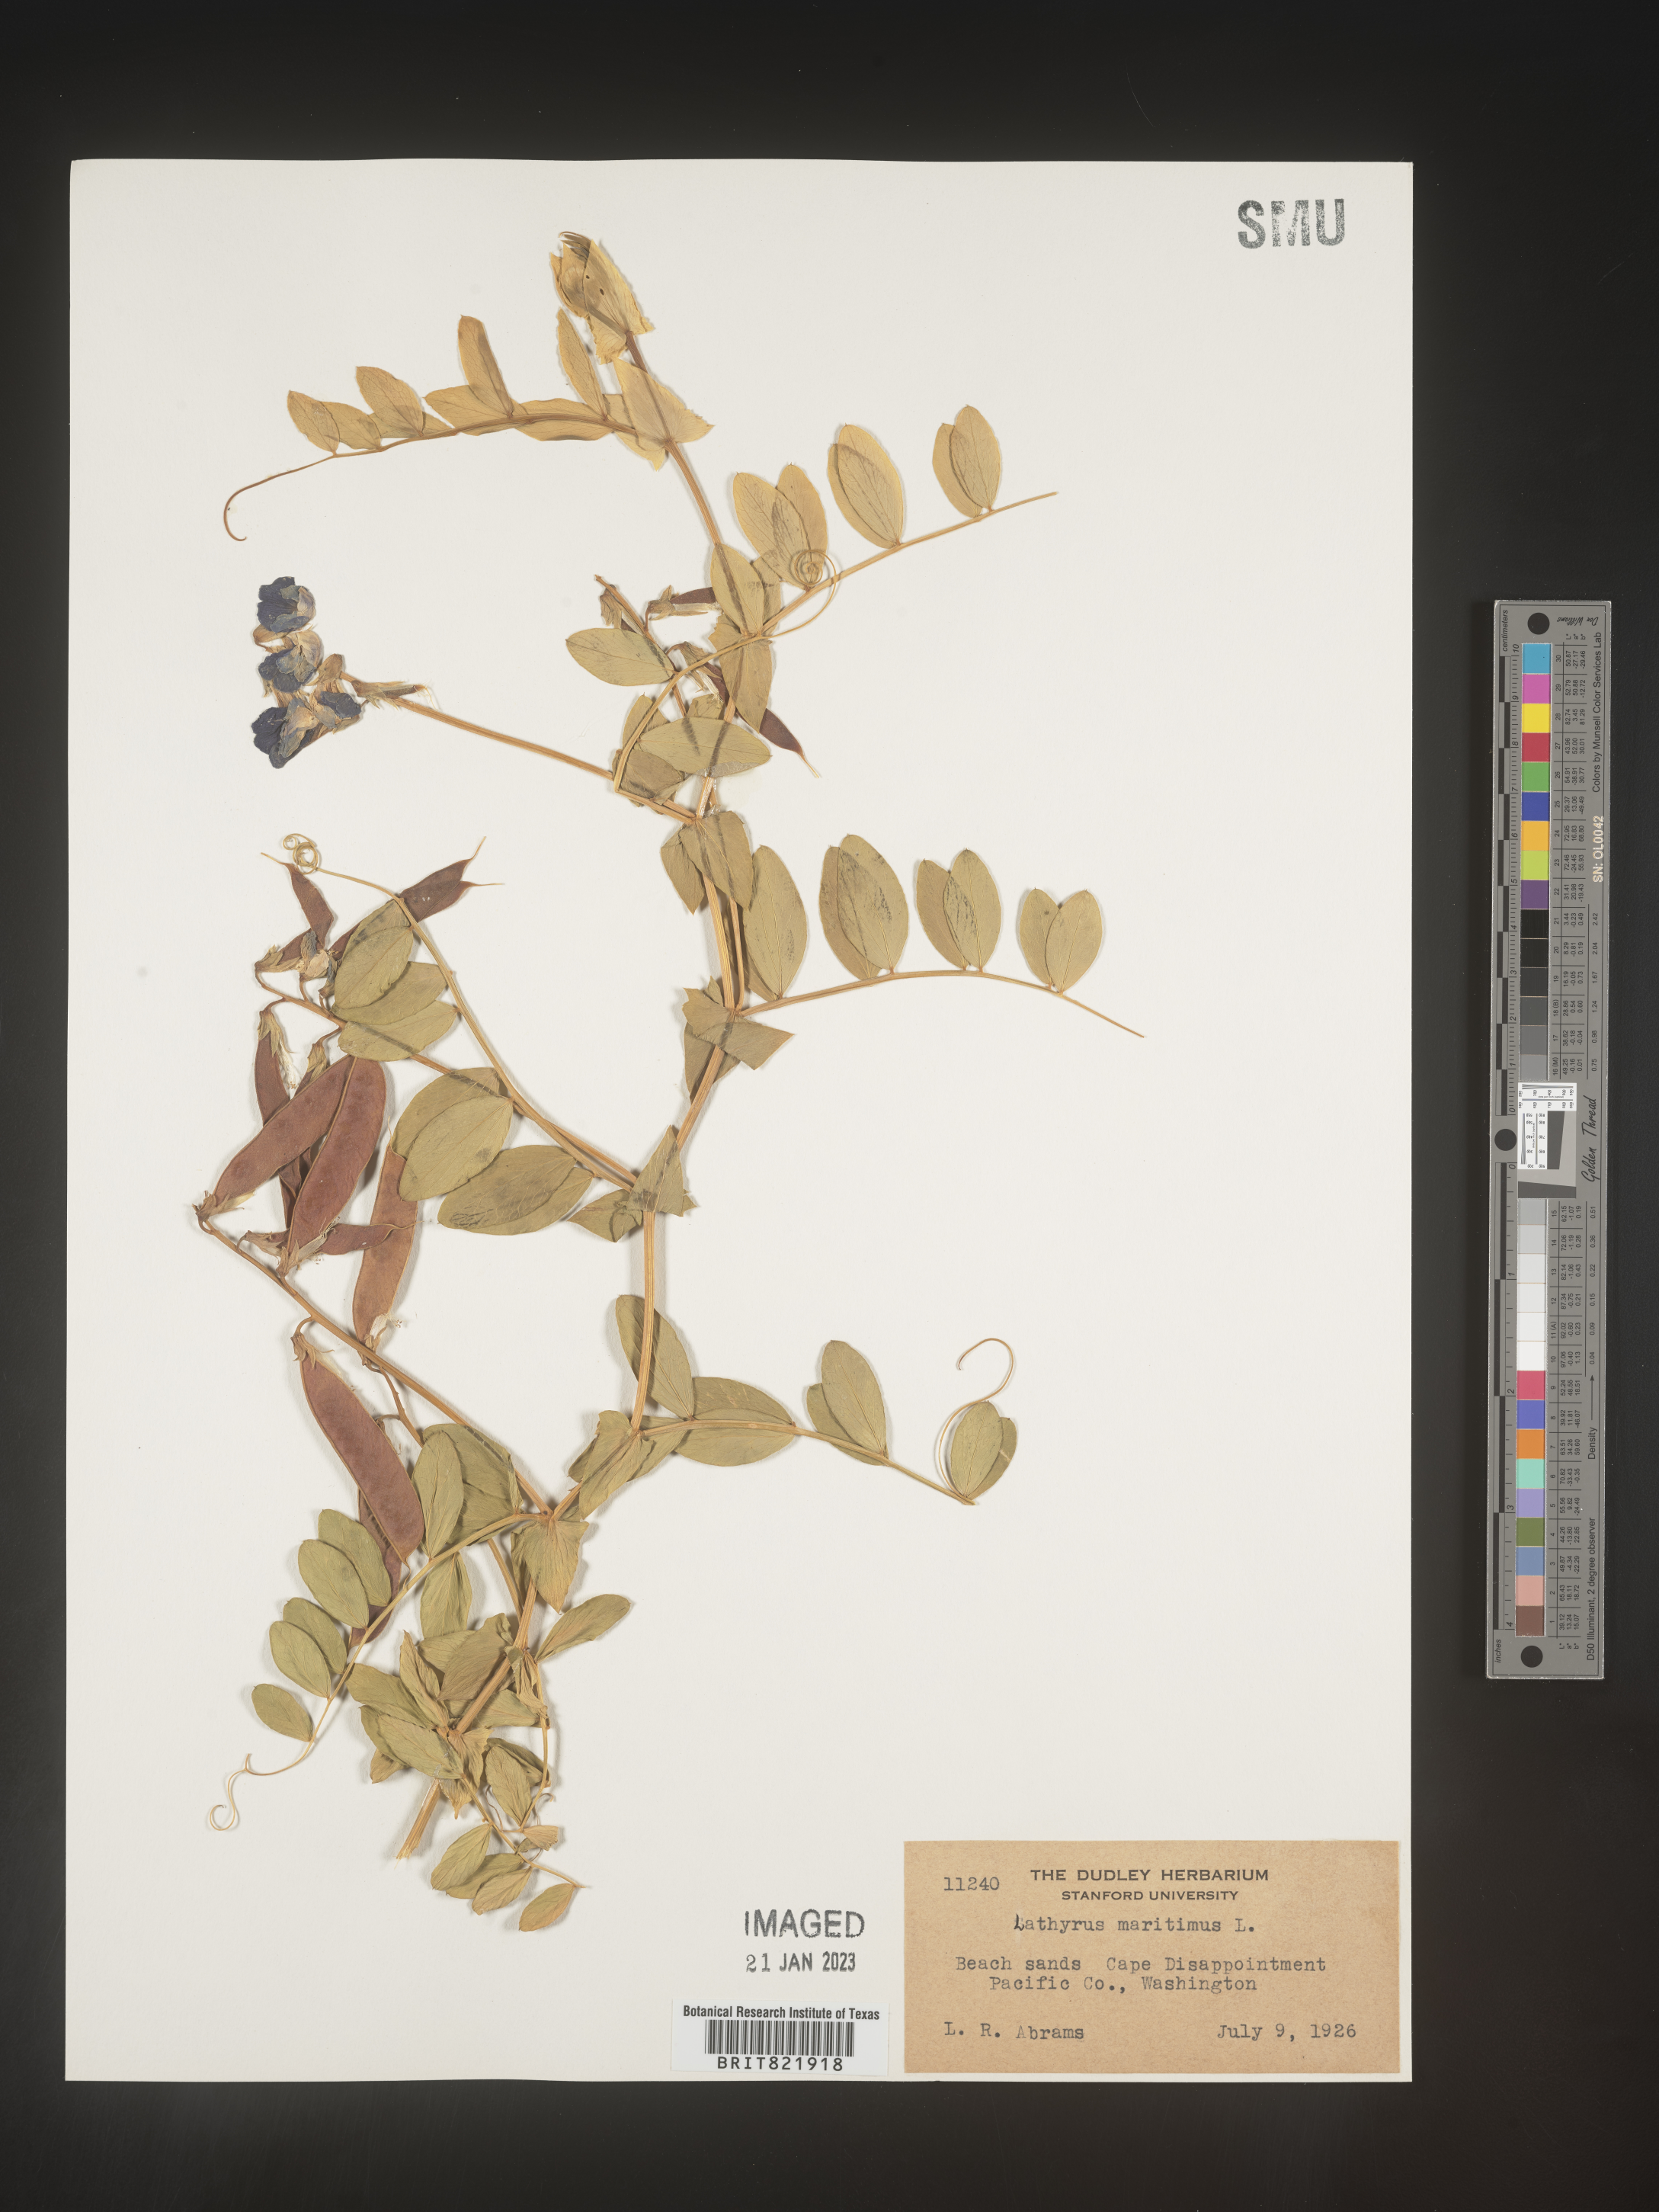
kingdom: Plantae
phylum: Tracheophyta
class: Magnoliopsida
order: Fabales
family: Fabaceae
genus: Lathyrus
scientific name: Lathyrus
